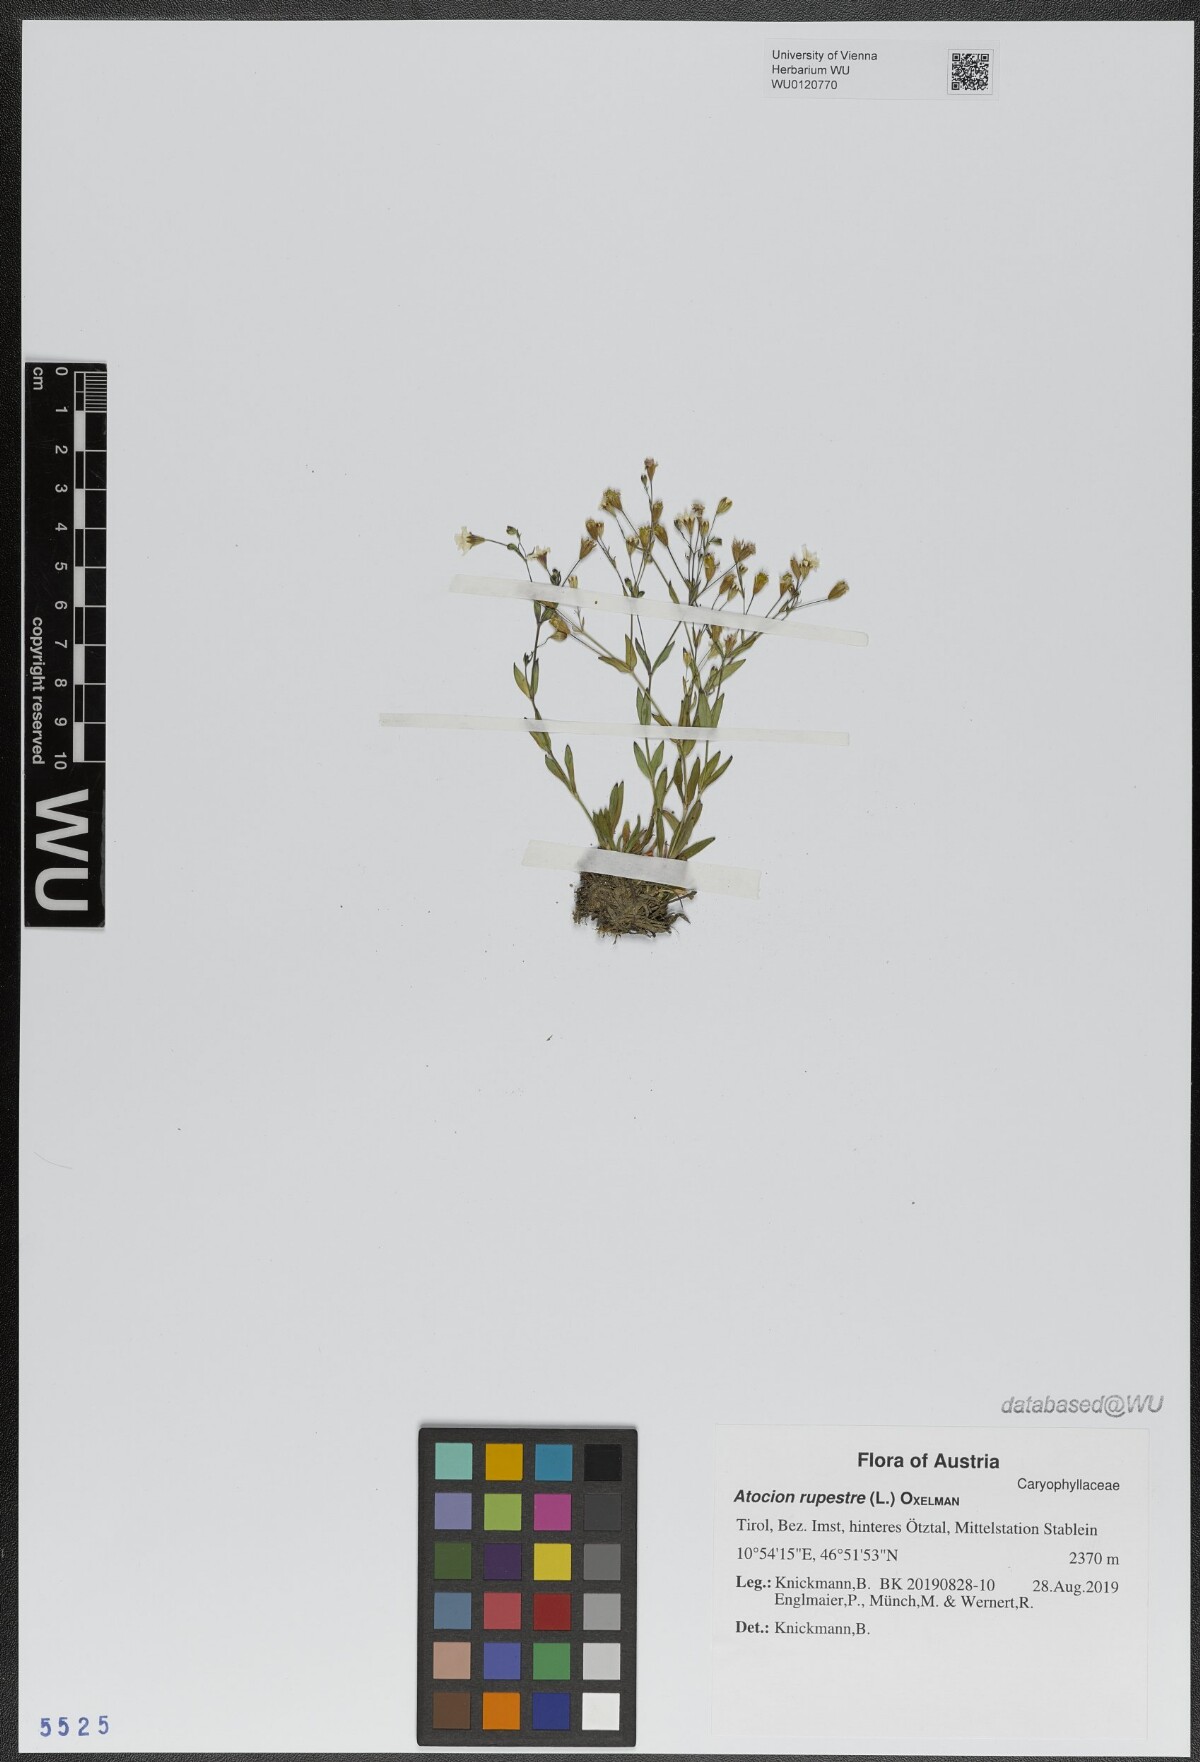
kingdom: Plantae
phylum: Tracheophyta
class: Magnoliopsida
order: Caryophyllales
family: Caryophyllaceae
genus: Atocion
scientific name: Atocion rupestre
